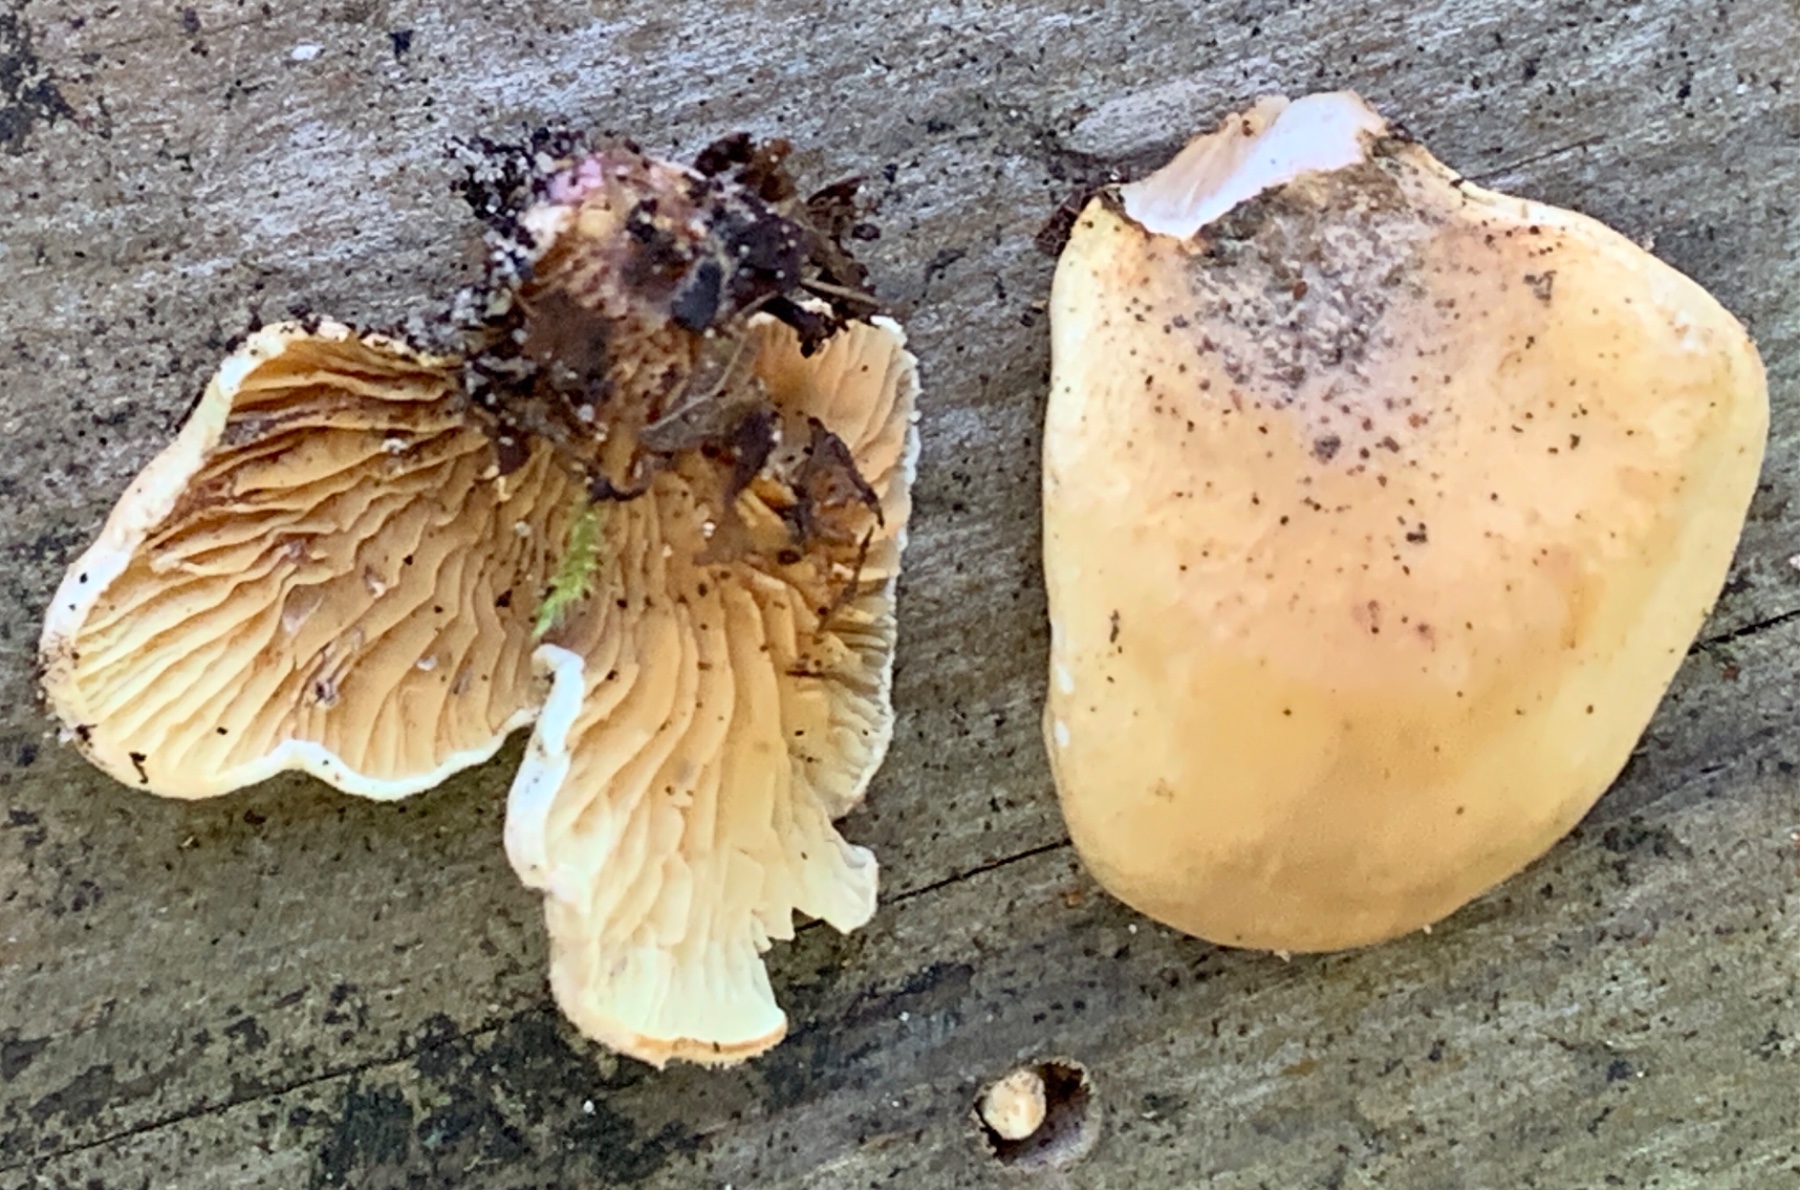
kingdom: Fungi
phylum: Basidiomycota
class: Agaricomycetes
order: Boletales
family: Tapinellaceae
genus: Tapinella
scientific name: Tapinella panuoides
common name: tømmer-viftesvamp
